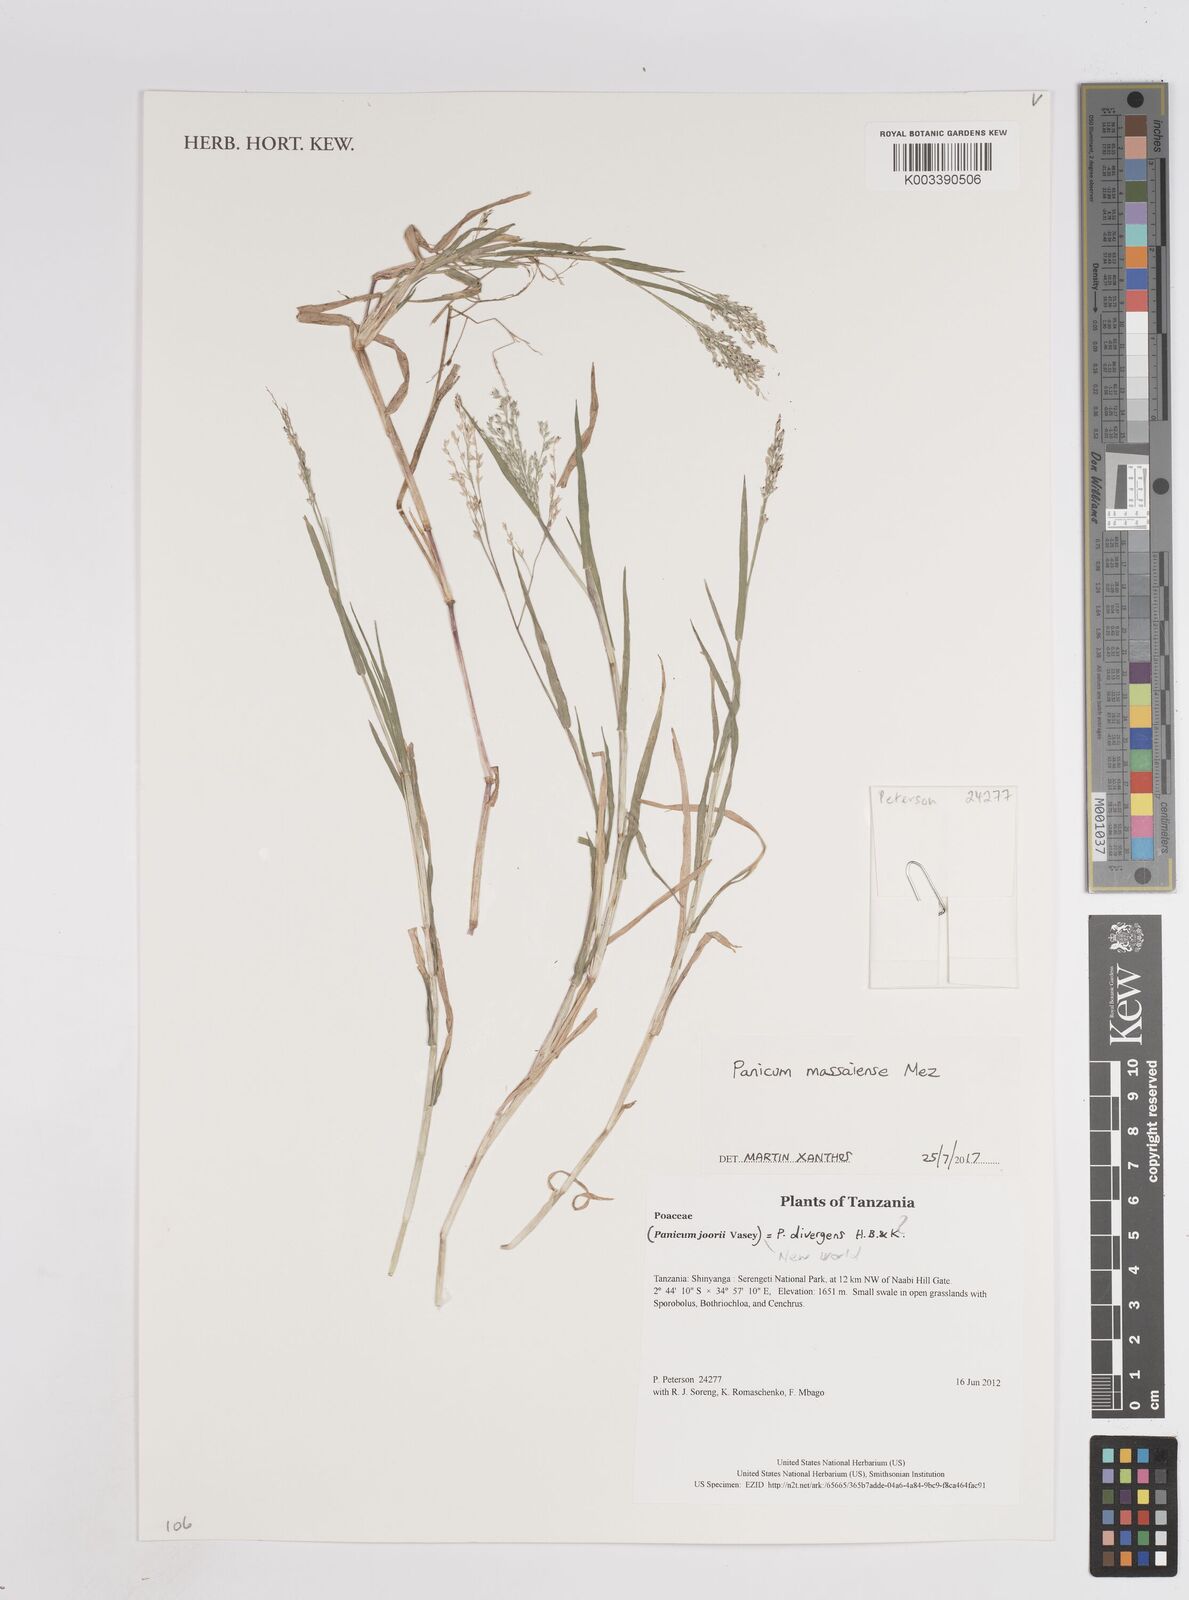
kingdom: Plantae
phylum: Tracheophyta
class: Liliopsida
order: Poales
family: Poaceae
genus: Panicum
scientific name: Panicum massaiense
